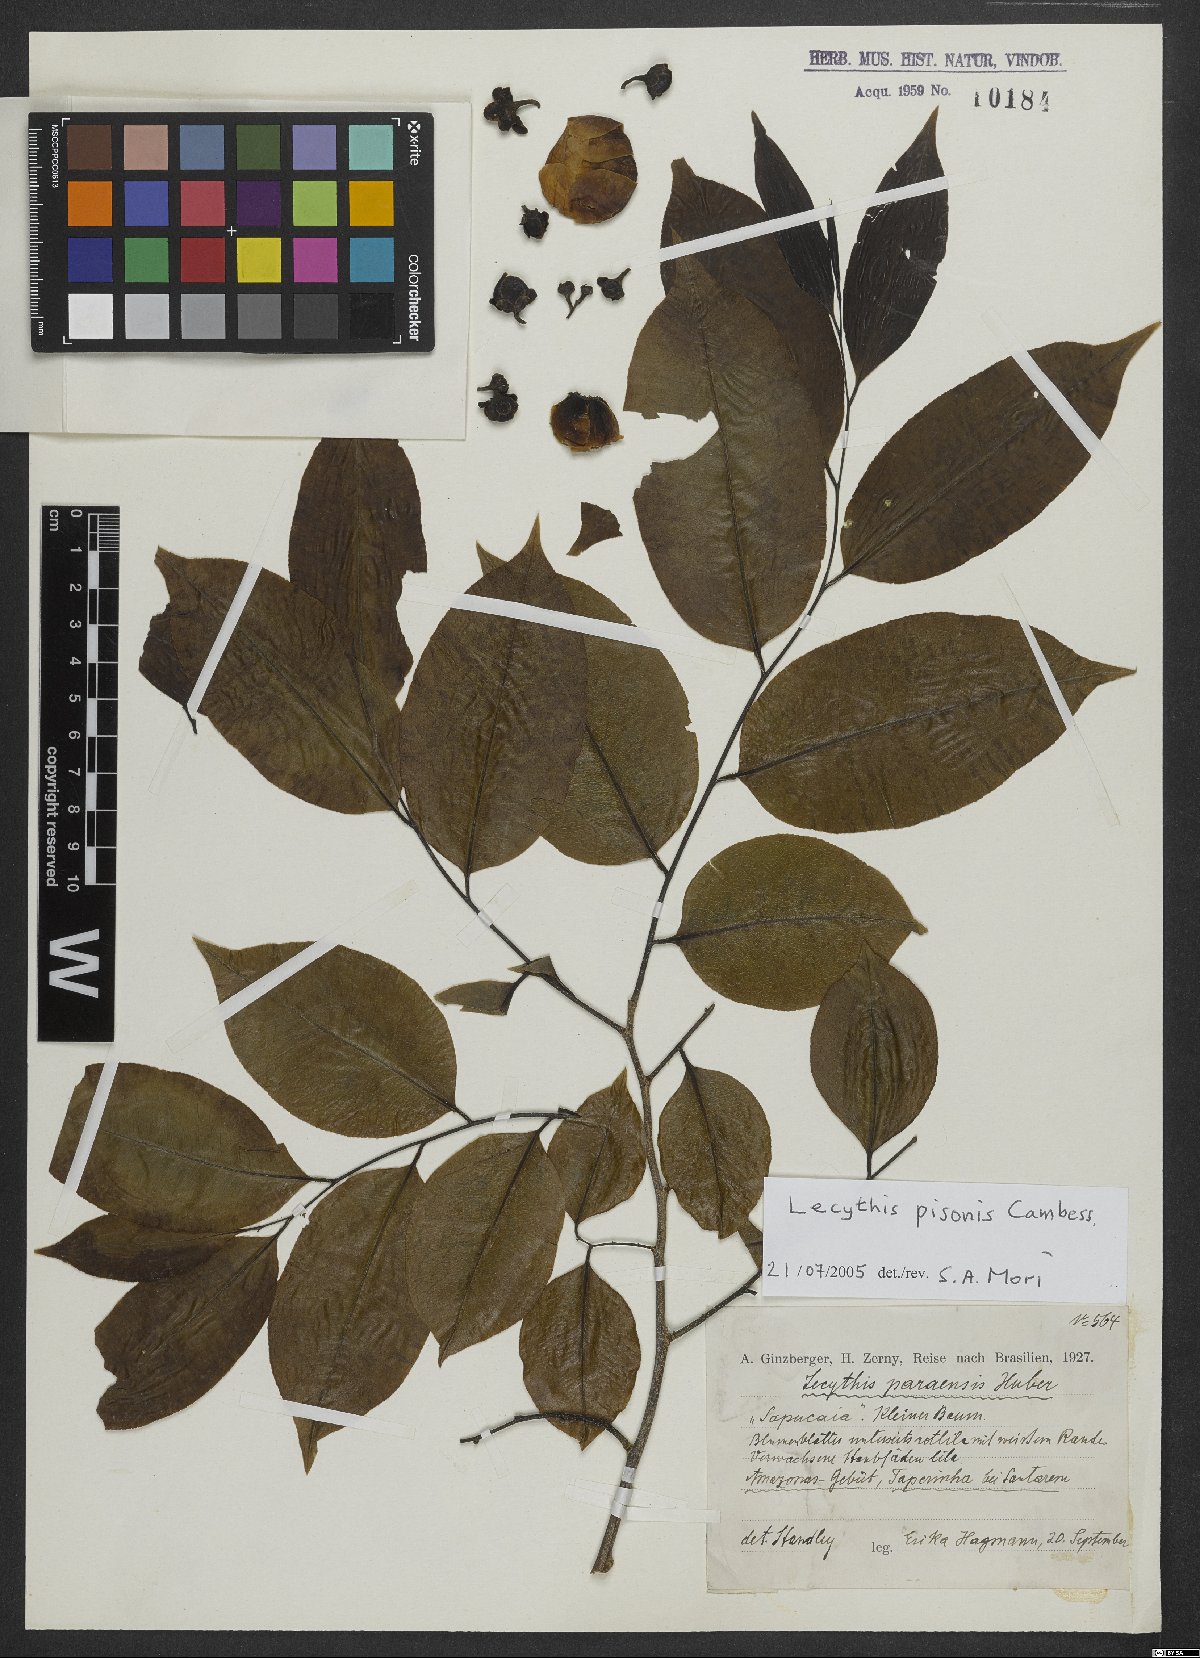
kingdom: Plantae
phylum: Tracheophyta
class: Magnoliopsida
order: Ericales
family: Lecythidaceae
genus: Lecythis
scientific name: Lecythis pisonis
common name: Paradise-nut
